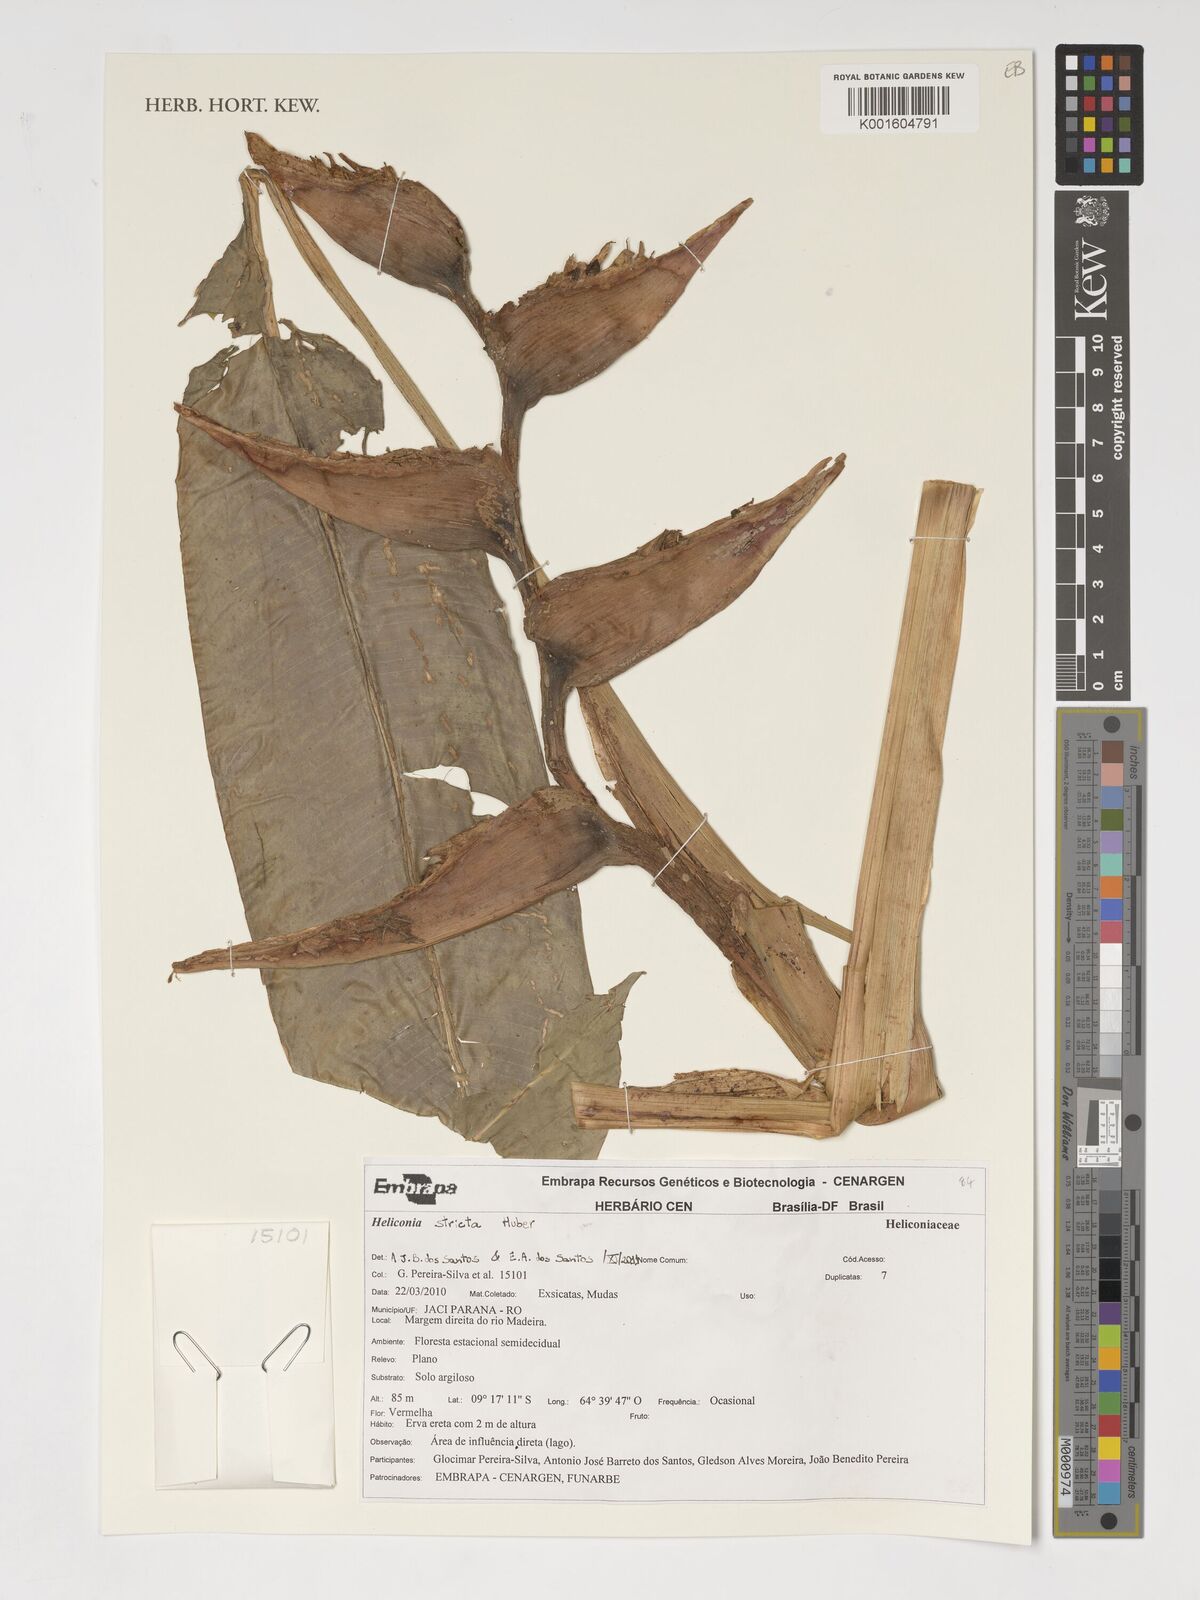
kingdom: Plantae
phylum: Tracheophyta
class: Liliopsida
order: Zingiberales
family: Heliconiaceae
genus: Heliconia
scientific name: Heliconia stricta
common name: Small lobster claw
